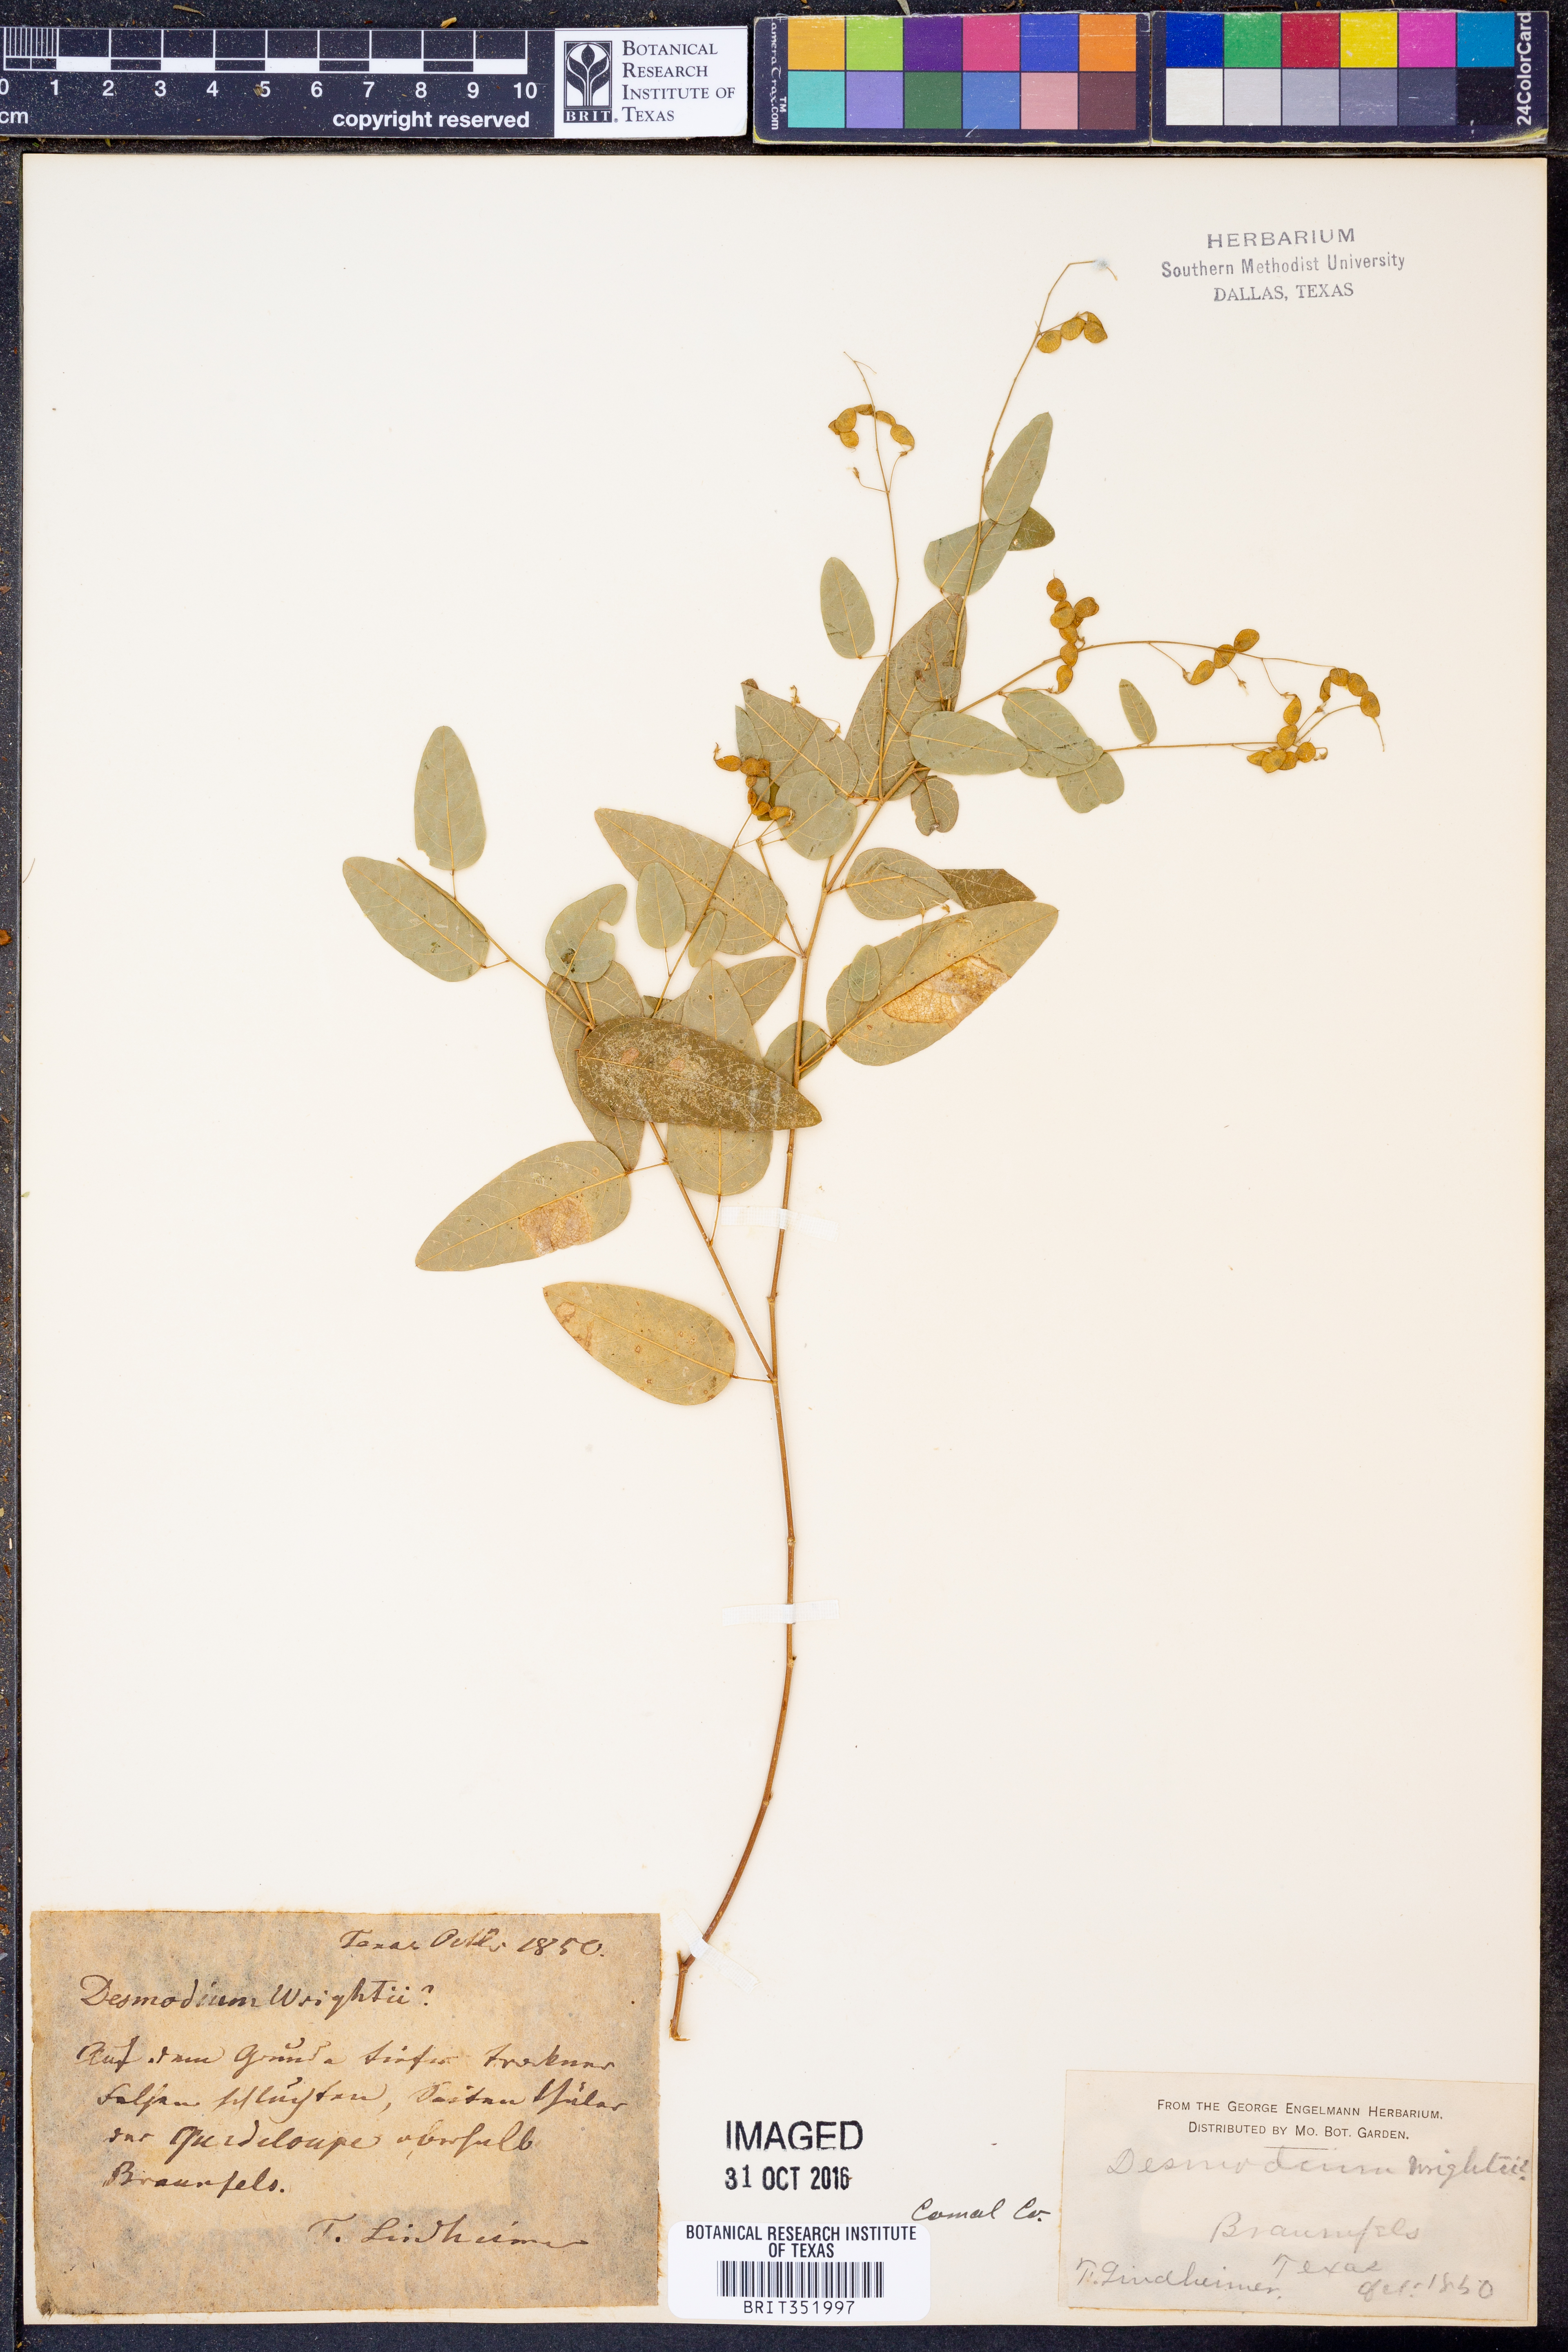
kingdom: Plantae
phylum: Tracheophyta
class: Magnoliopsida
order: Fabales
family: Fabaceae
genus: Desmodium
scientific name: Desmodium psilophyllum
